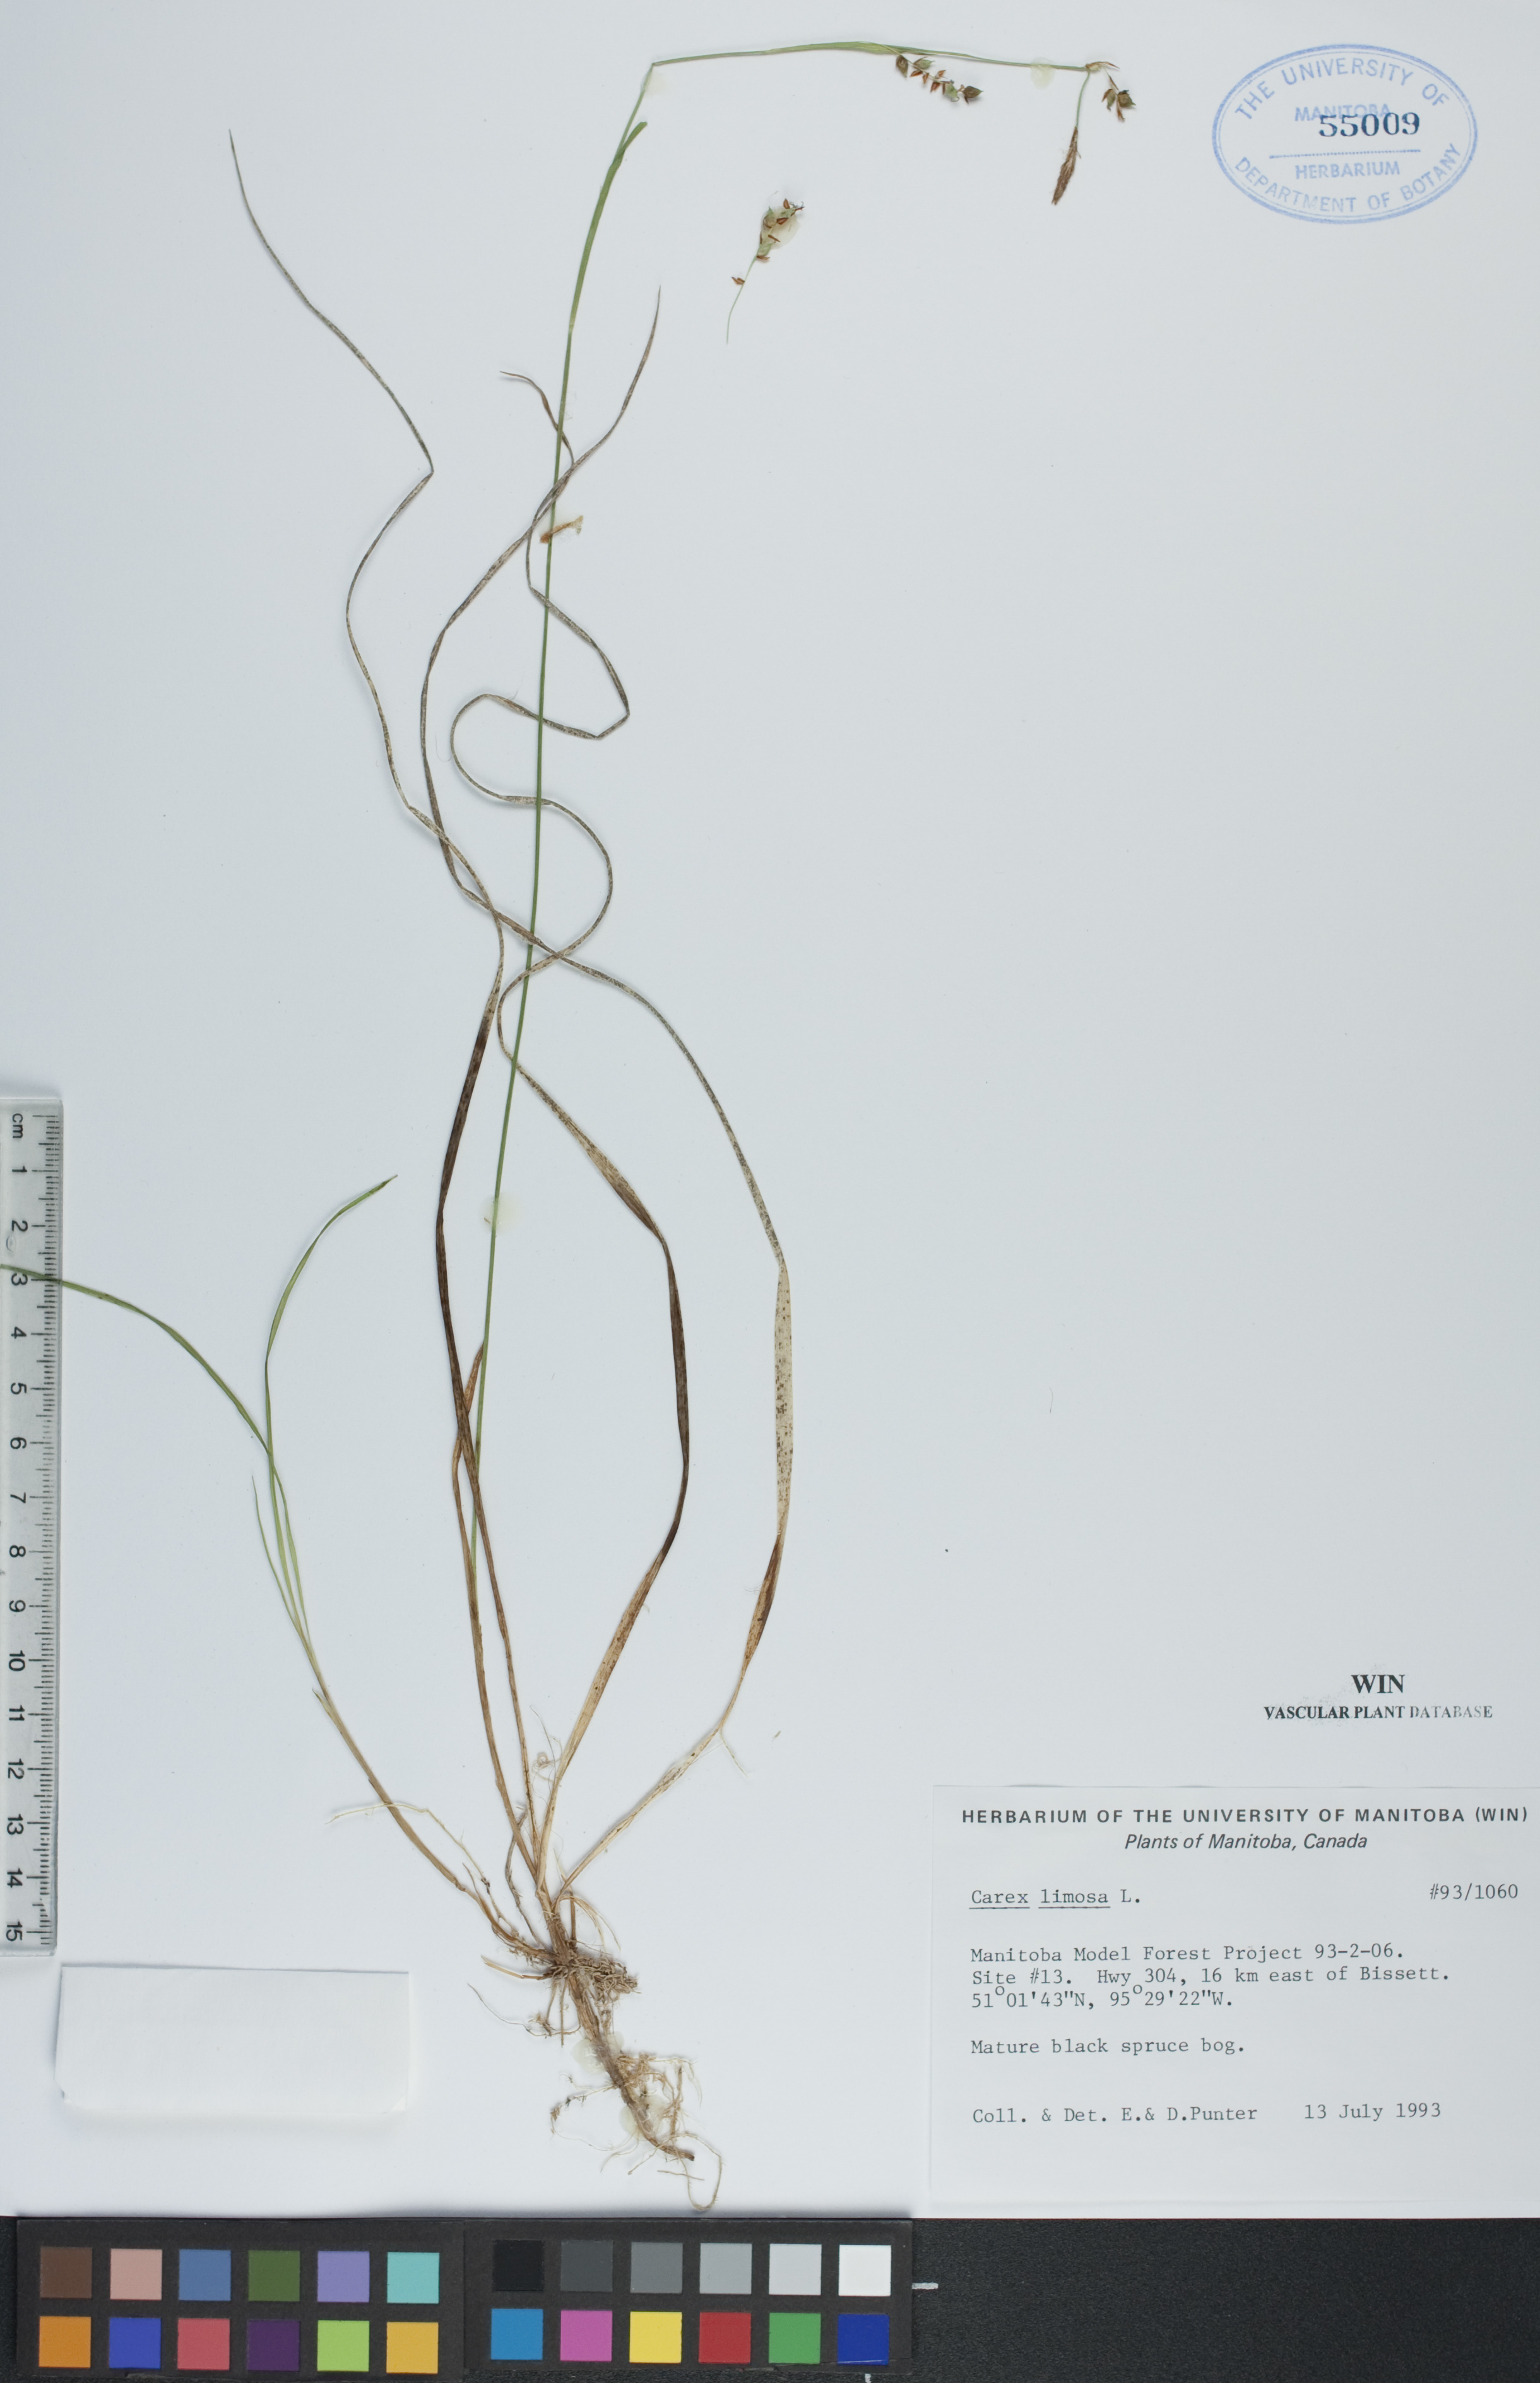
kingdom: Plantae
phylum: Tracheophyta
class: Liliopsida
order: Poales
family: Cyperaceae
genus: Carex
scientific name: Carex limosa
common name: Bog sedge
